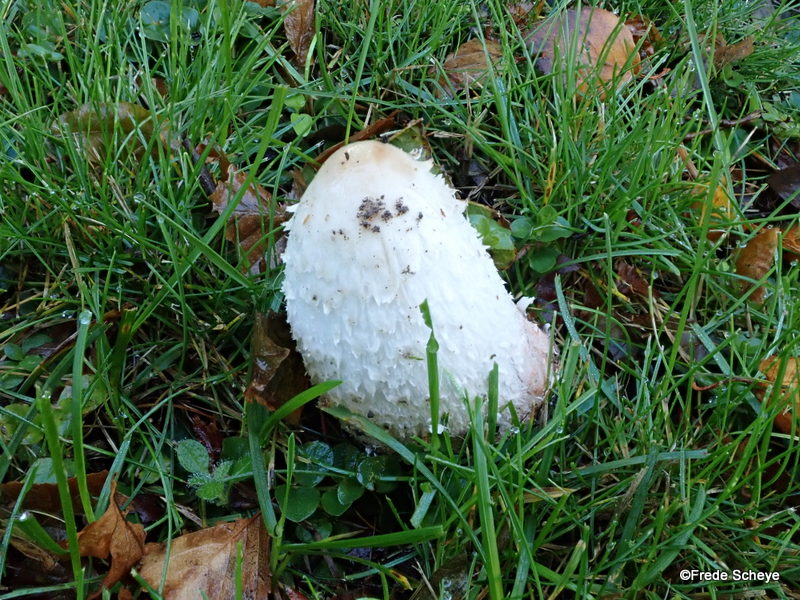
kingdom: Fungi
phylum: Basidiomycota
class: Agaricomycetes
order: Agaricales
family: Agaricaceae
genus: Coprinus
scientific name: Coprinus comatus
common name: stor parykhat
